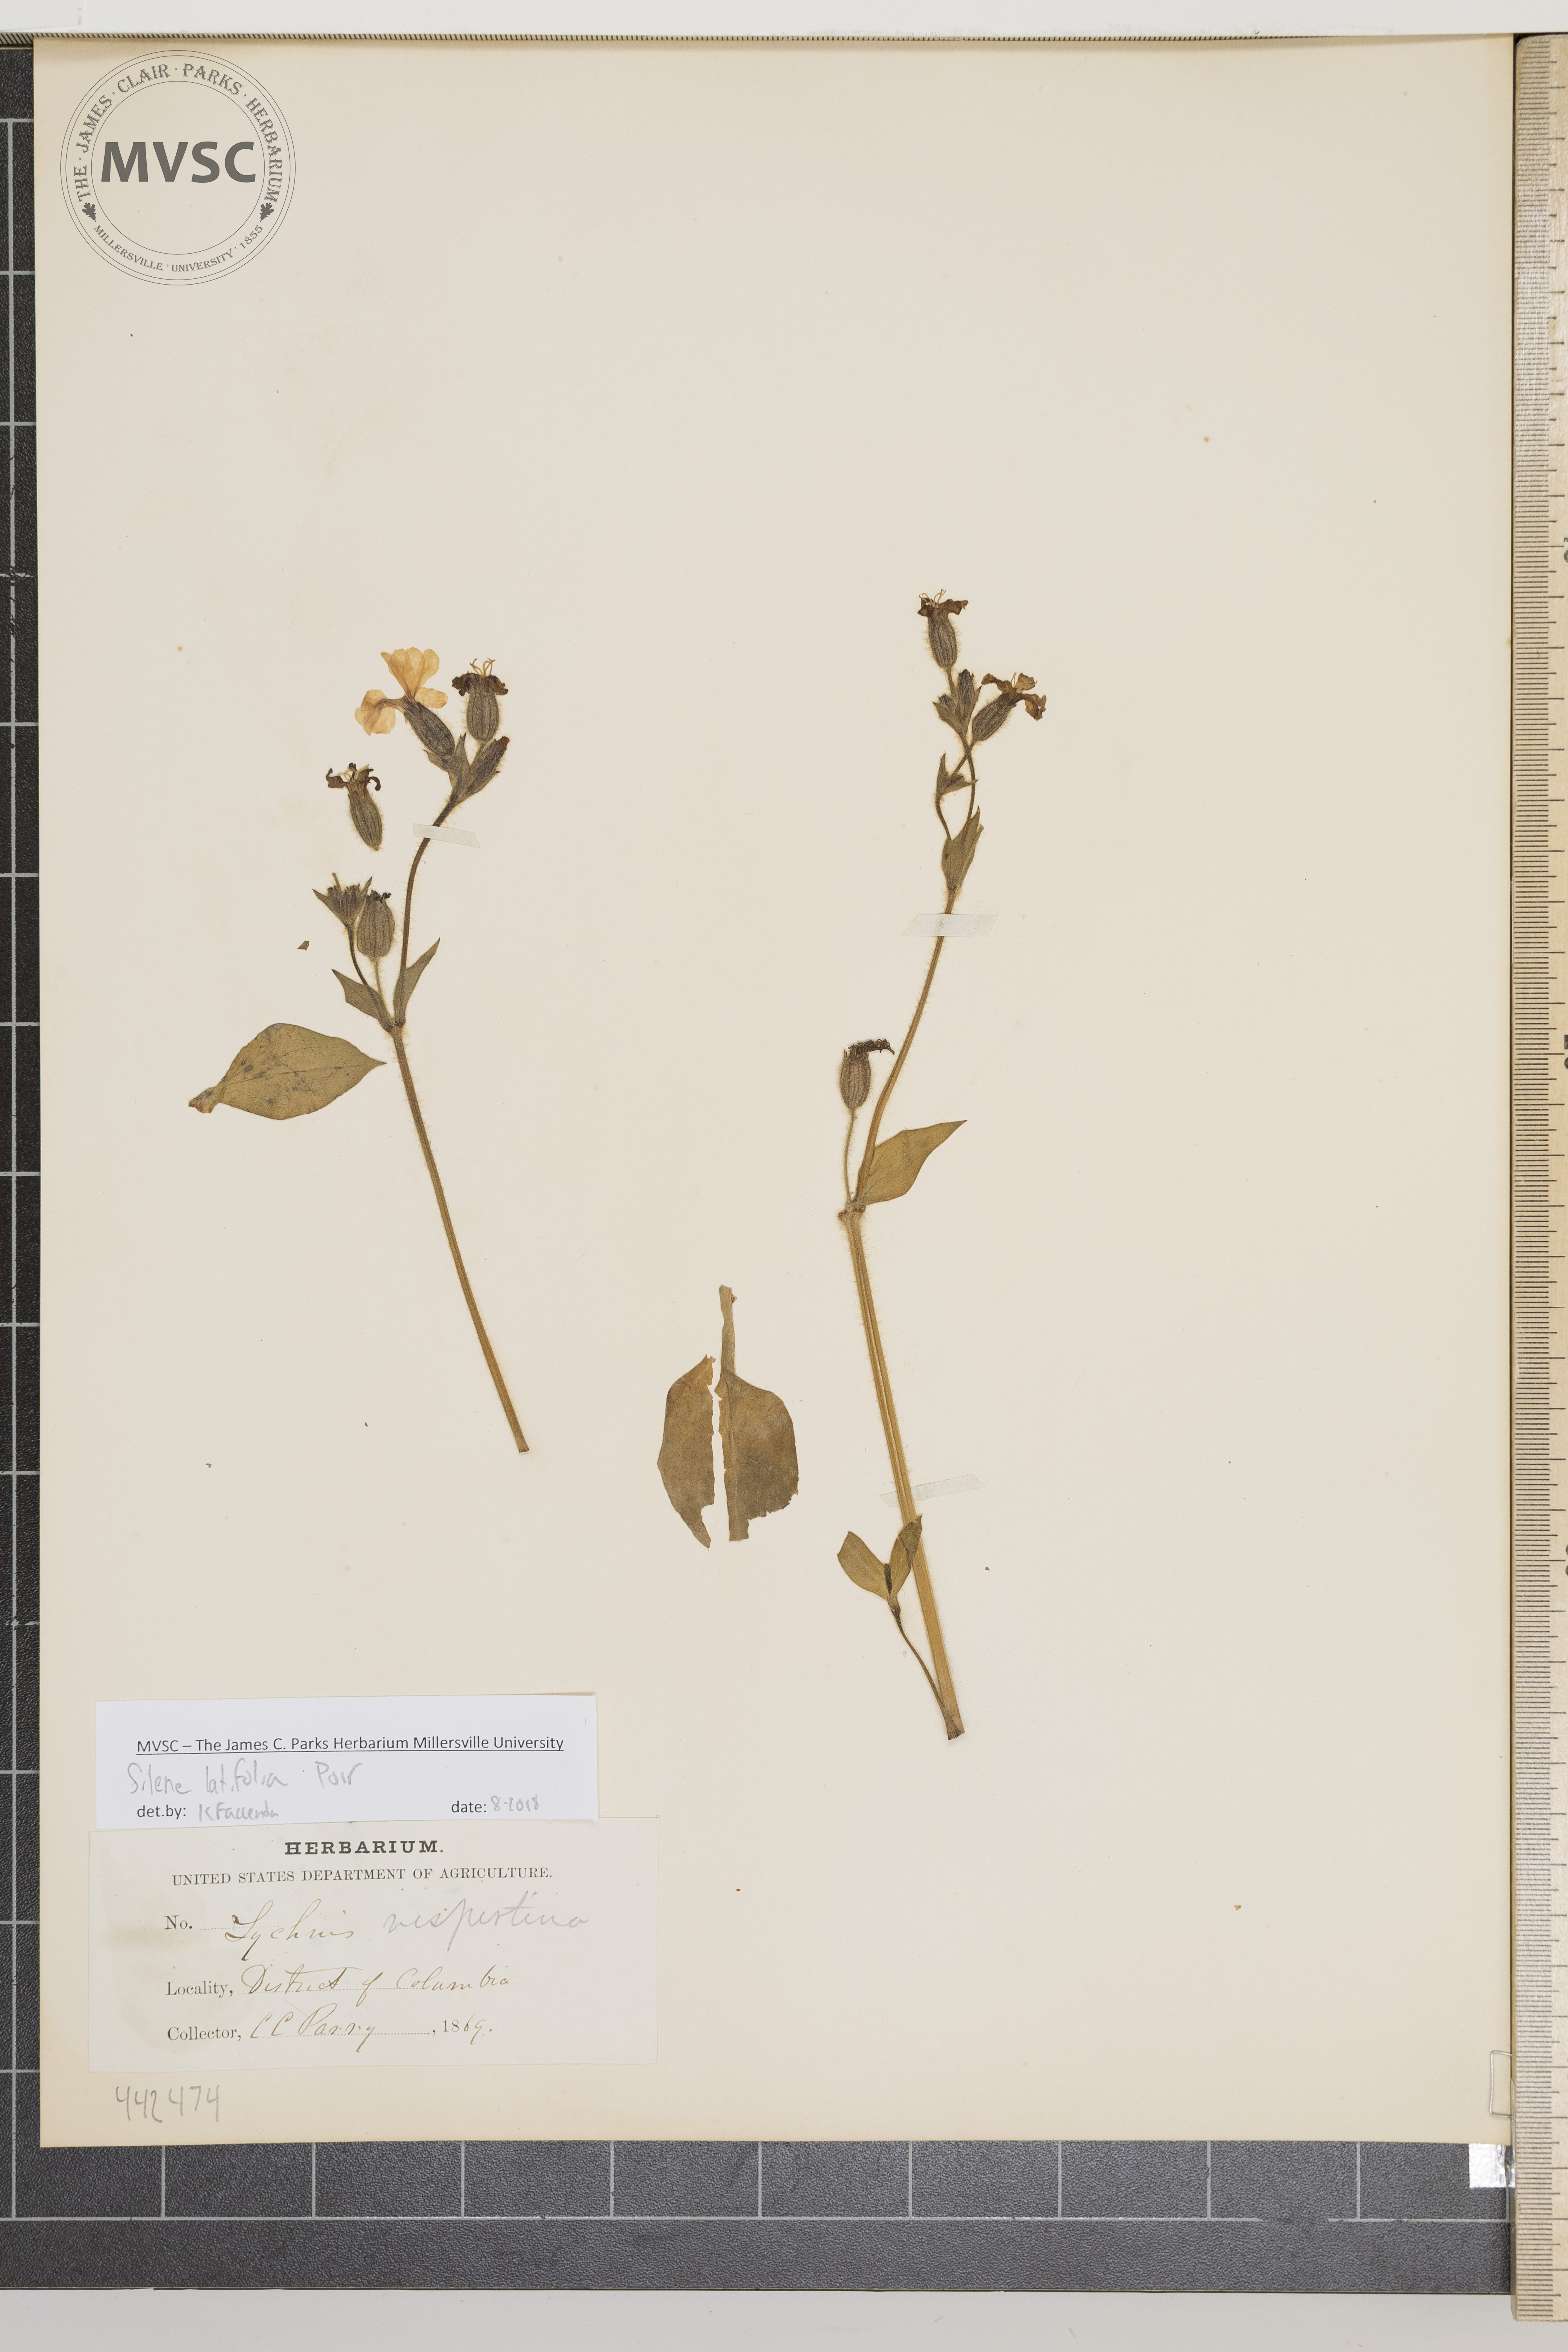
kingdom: Plantae
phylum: Tracheophyta
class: Magnoliopsida
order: Caryophyllales
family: Caryophyllaceae
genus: Silene
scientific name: Silene latifolia
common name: White campion
